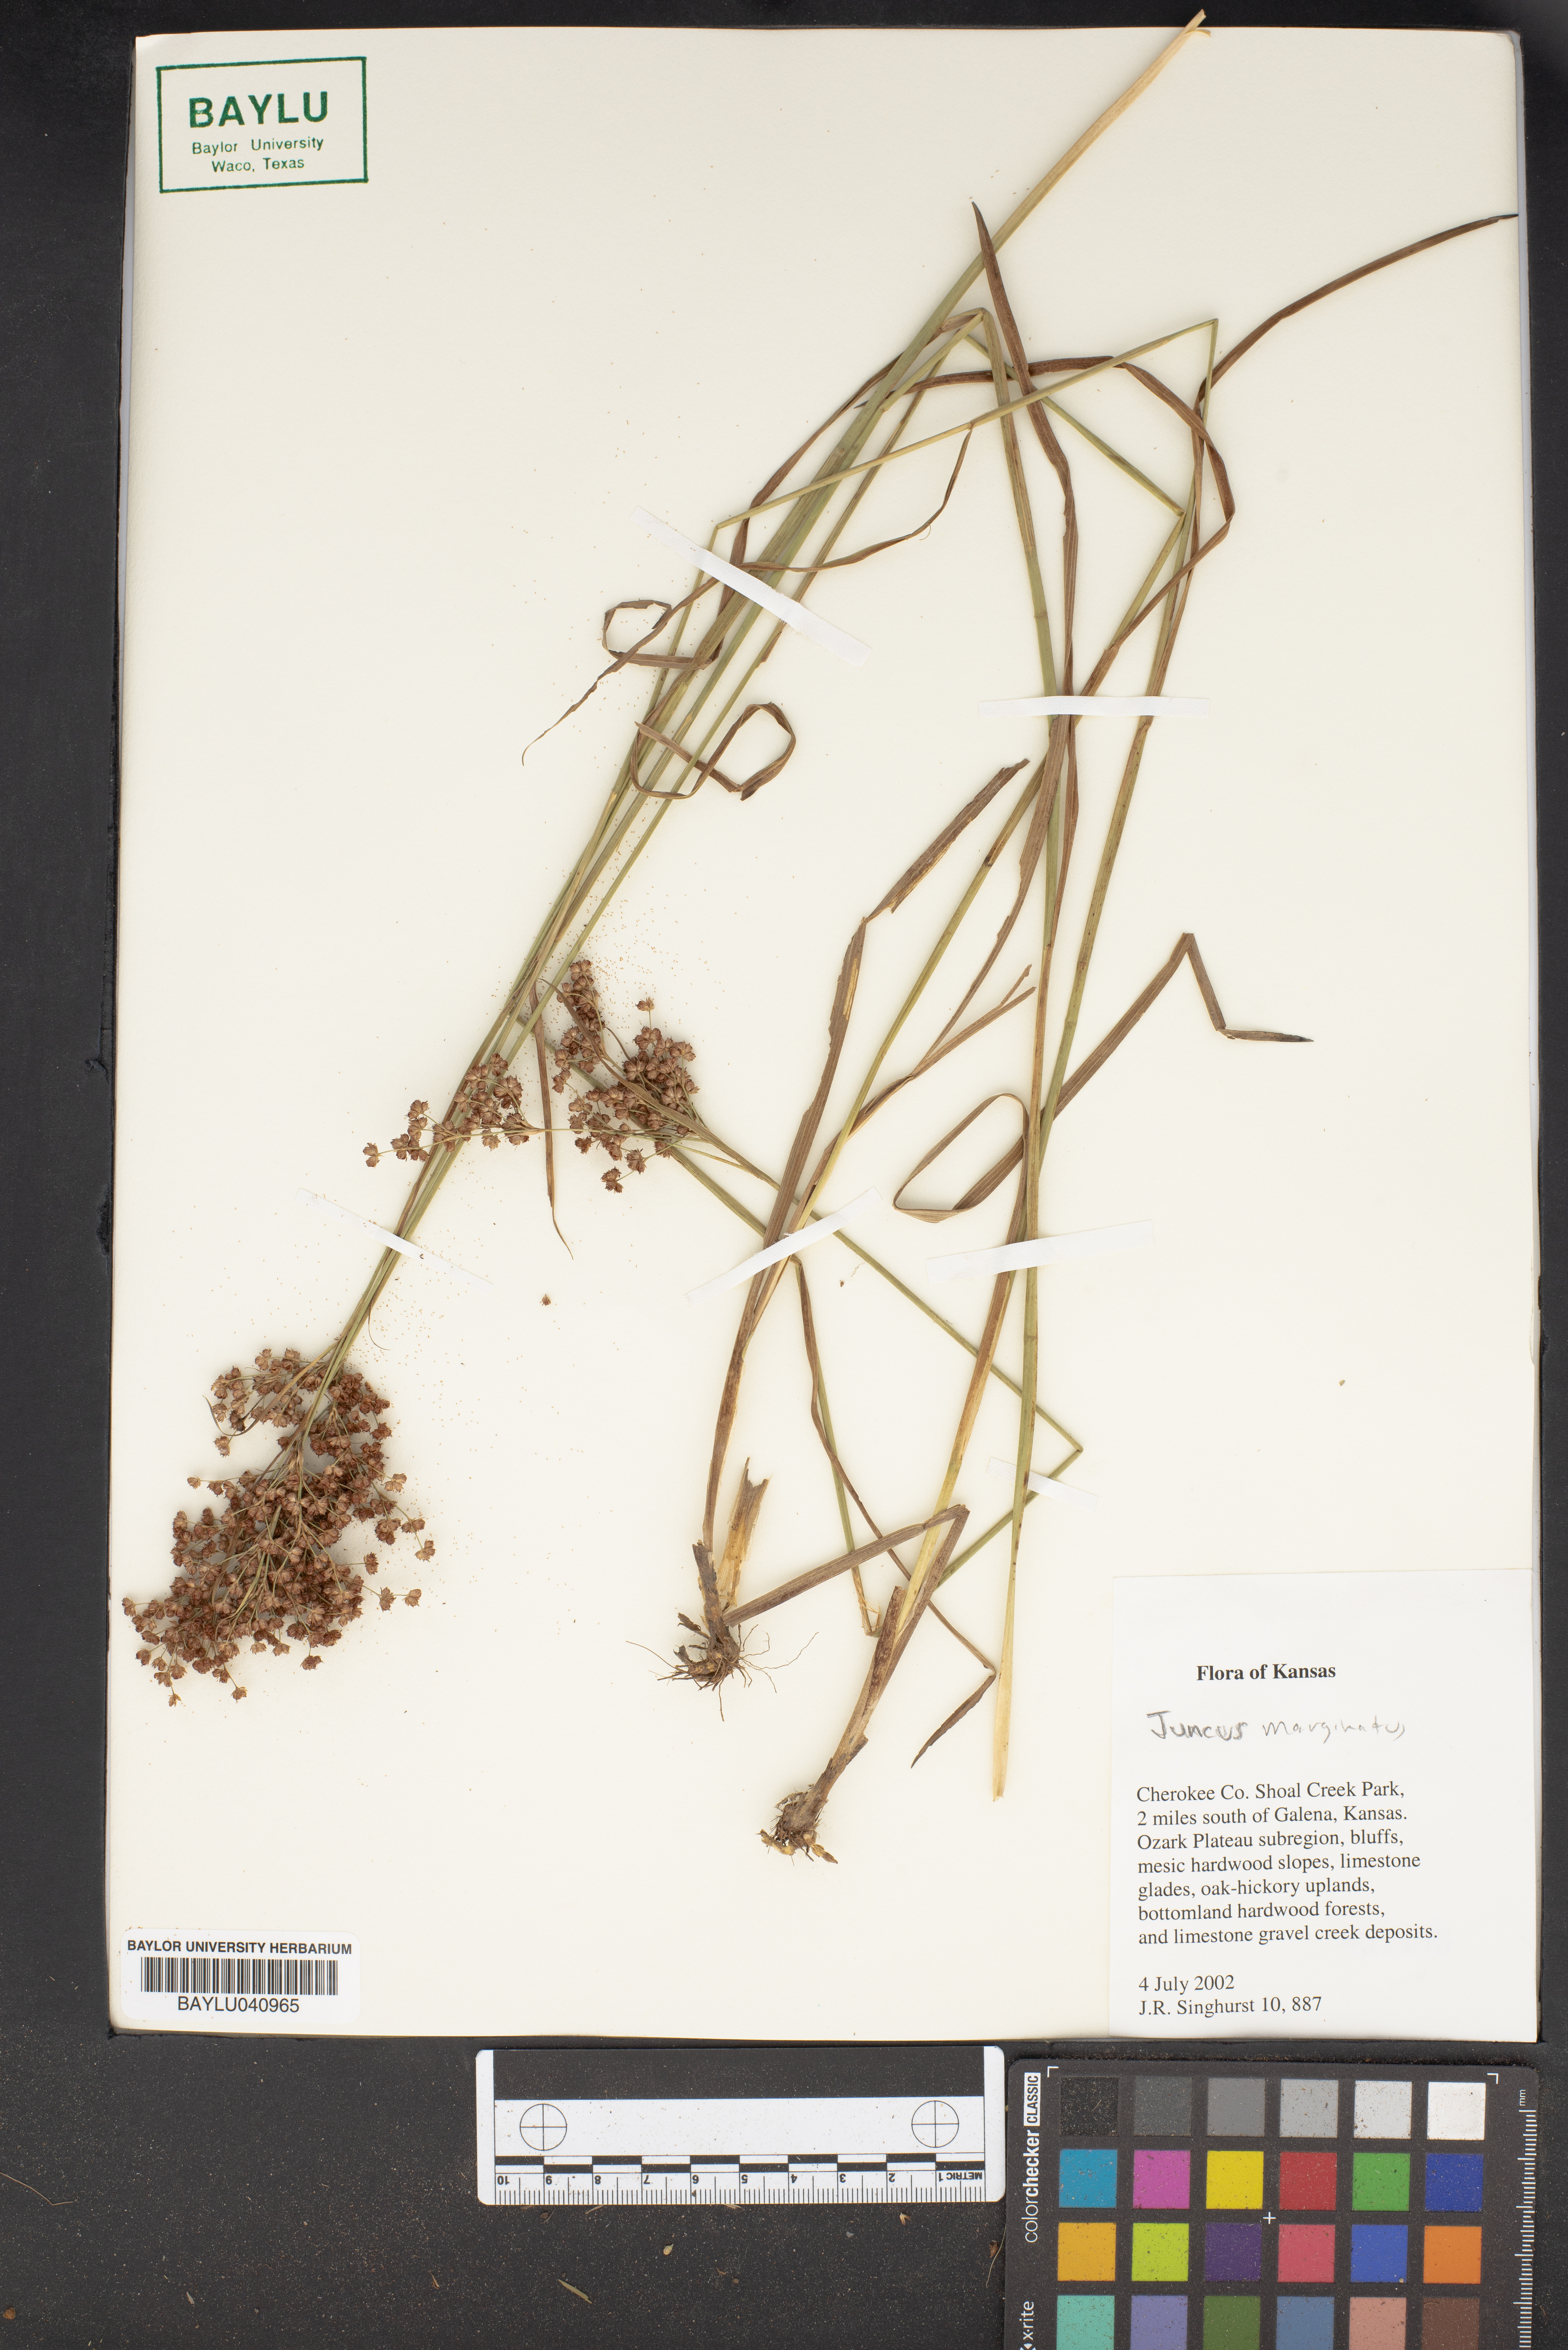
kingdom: Plantae
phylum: Tracheophyta
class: Liliopsida
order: Poales
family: Juncaceae
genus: Juncus
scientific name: Juncus marginatus
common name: Grass-leaf rush
